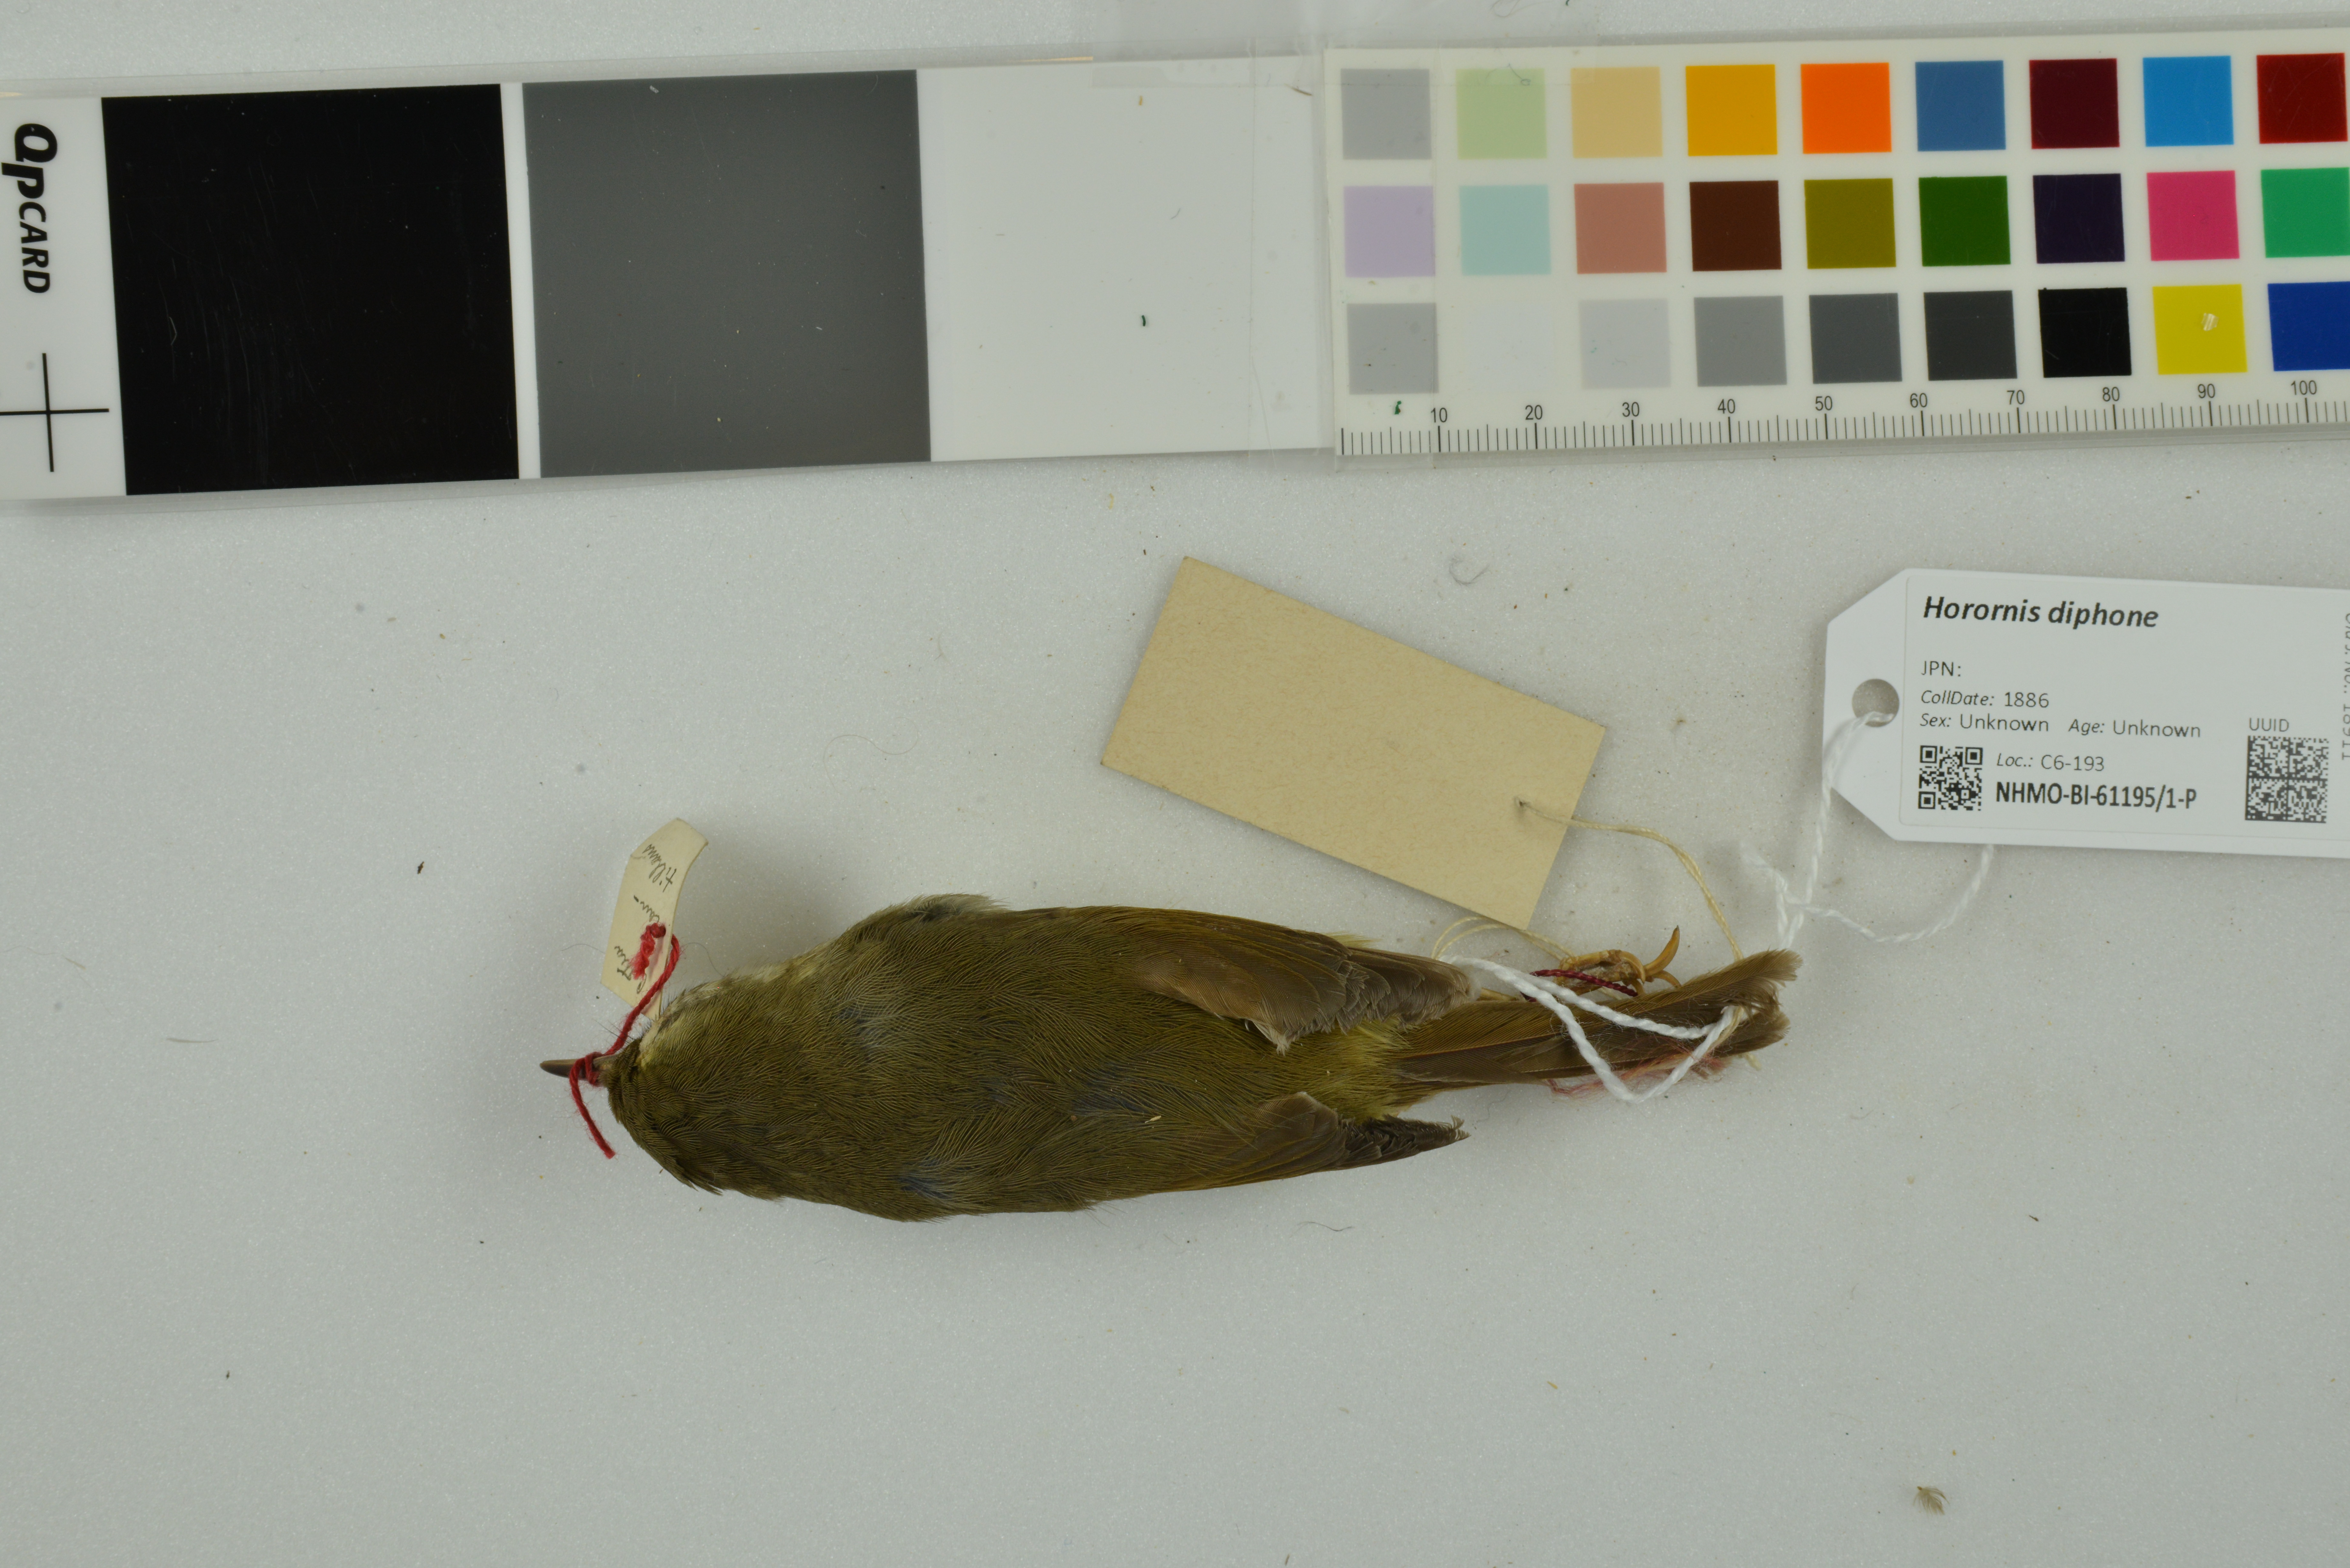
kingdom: Animalia
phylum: Chordata
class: Aves
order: Passeriformes
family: Cettiidae
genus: Horornis
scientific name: Horornis diphone
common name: Japanese bush warbler
